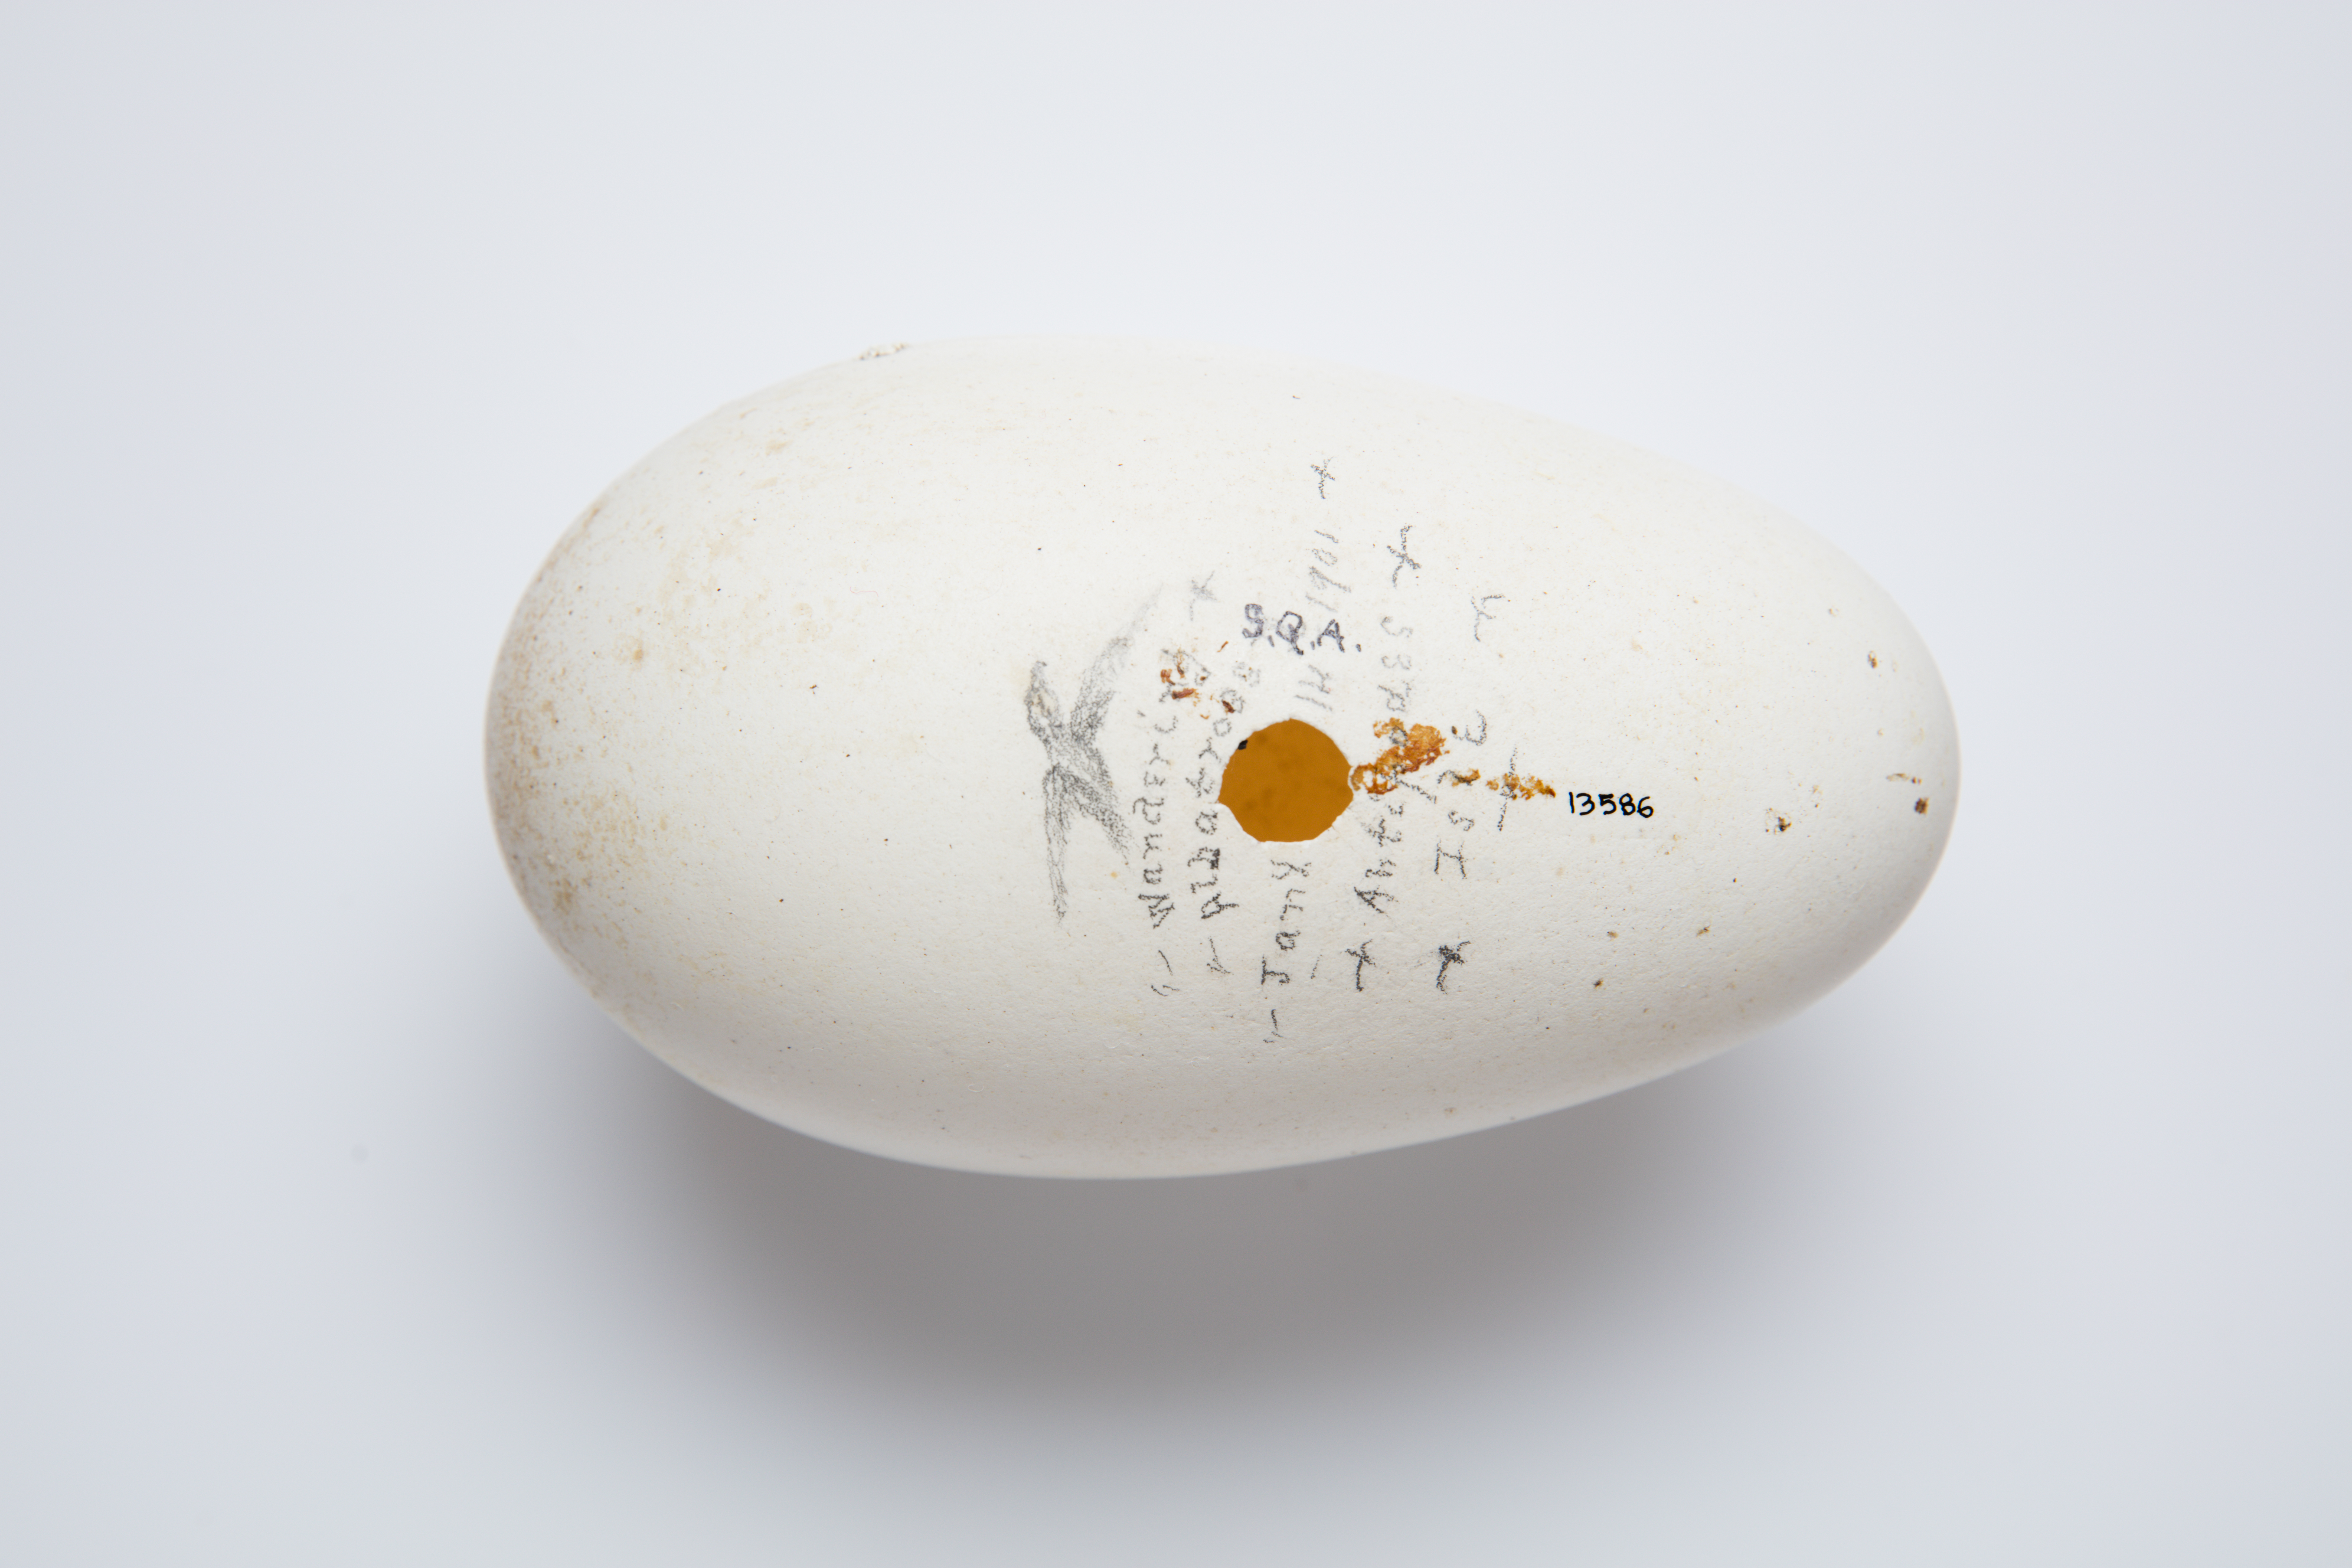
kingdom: Animalia
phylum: Chordata
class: Aves
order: Procellariiformes
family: Diomedeidae
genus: Diomedea
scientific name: Diomedea antipodensis
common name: Antipodean albatross
